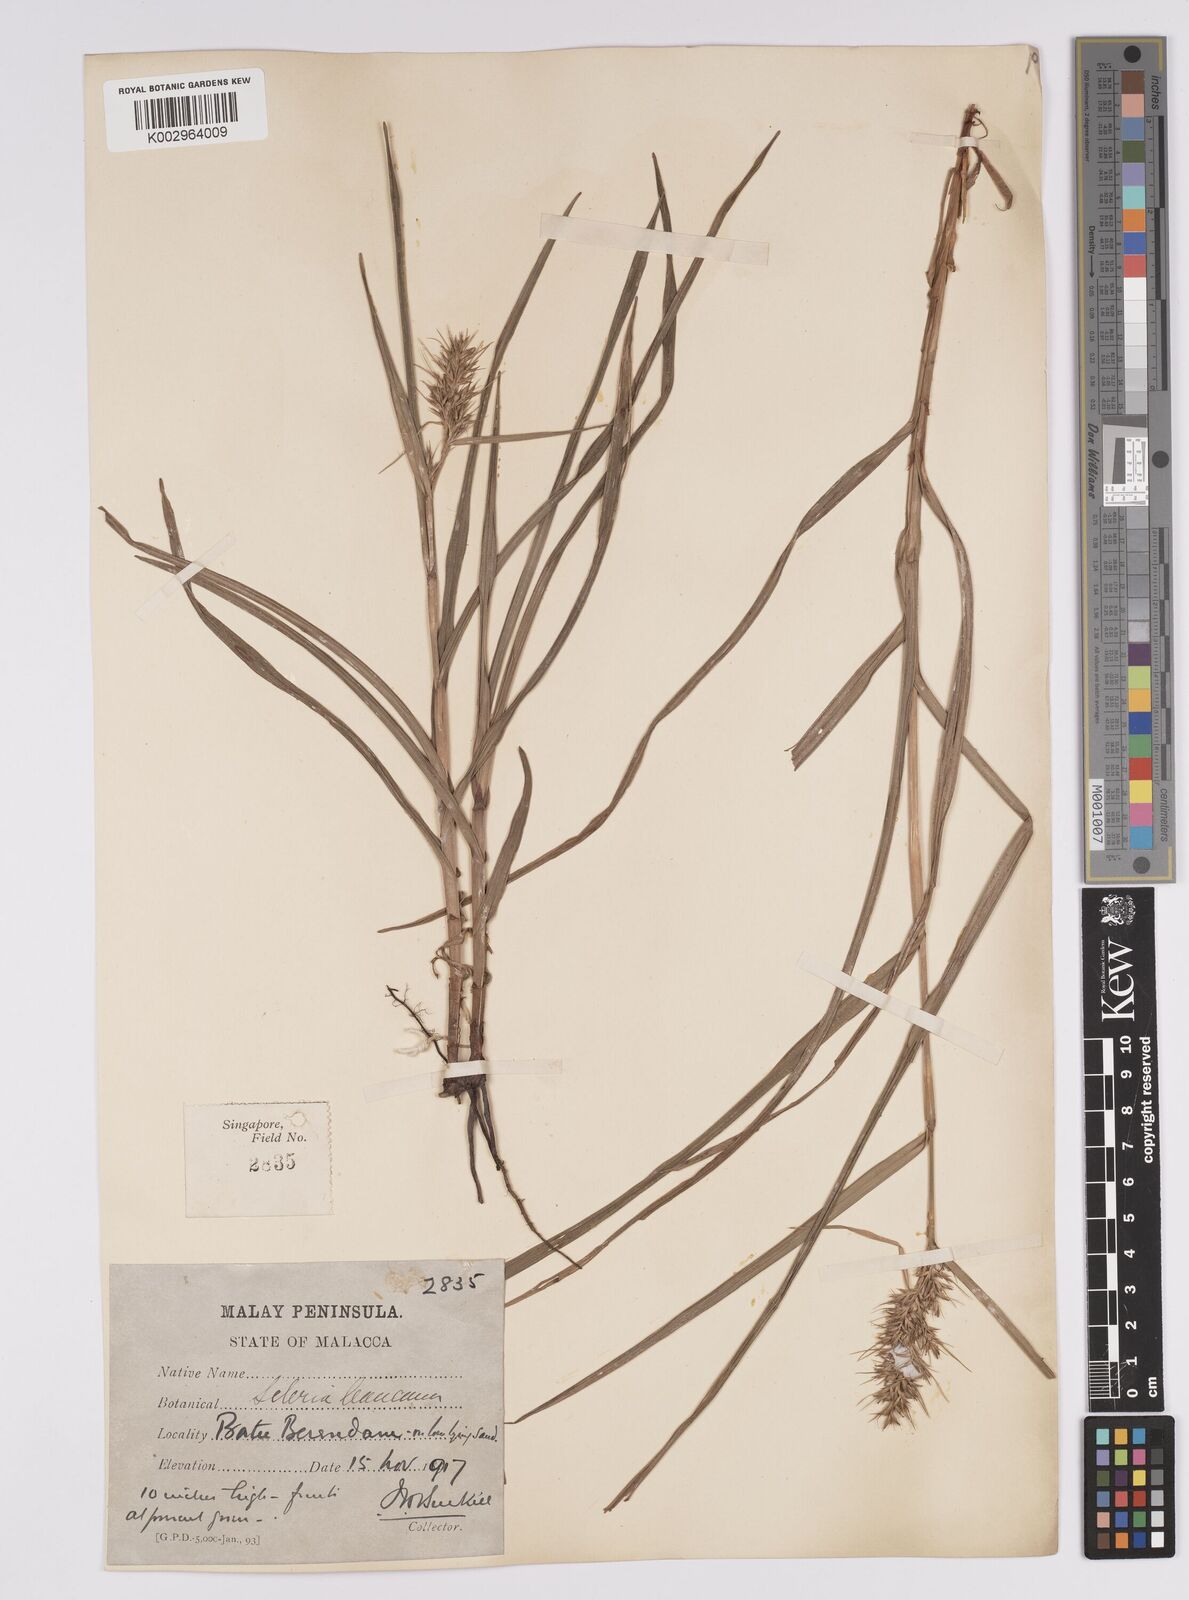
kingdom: Plantae
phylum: Tracheophyta
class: Liliopsida
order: Poales
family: Cyperaceae
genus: Scleria
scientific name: Scleria ciliaris
